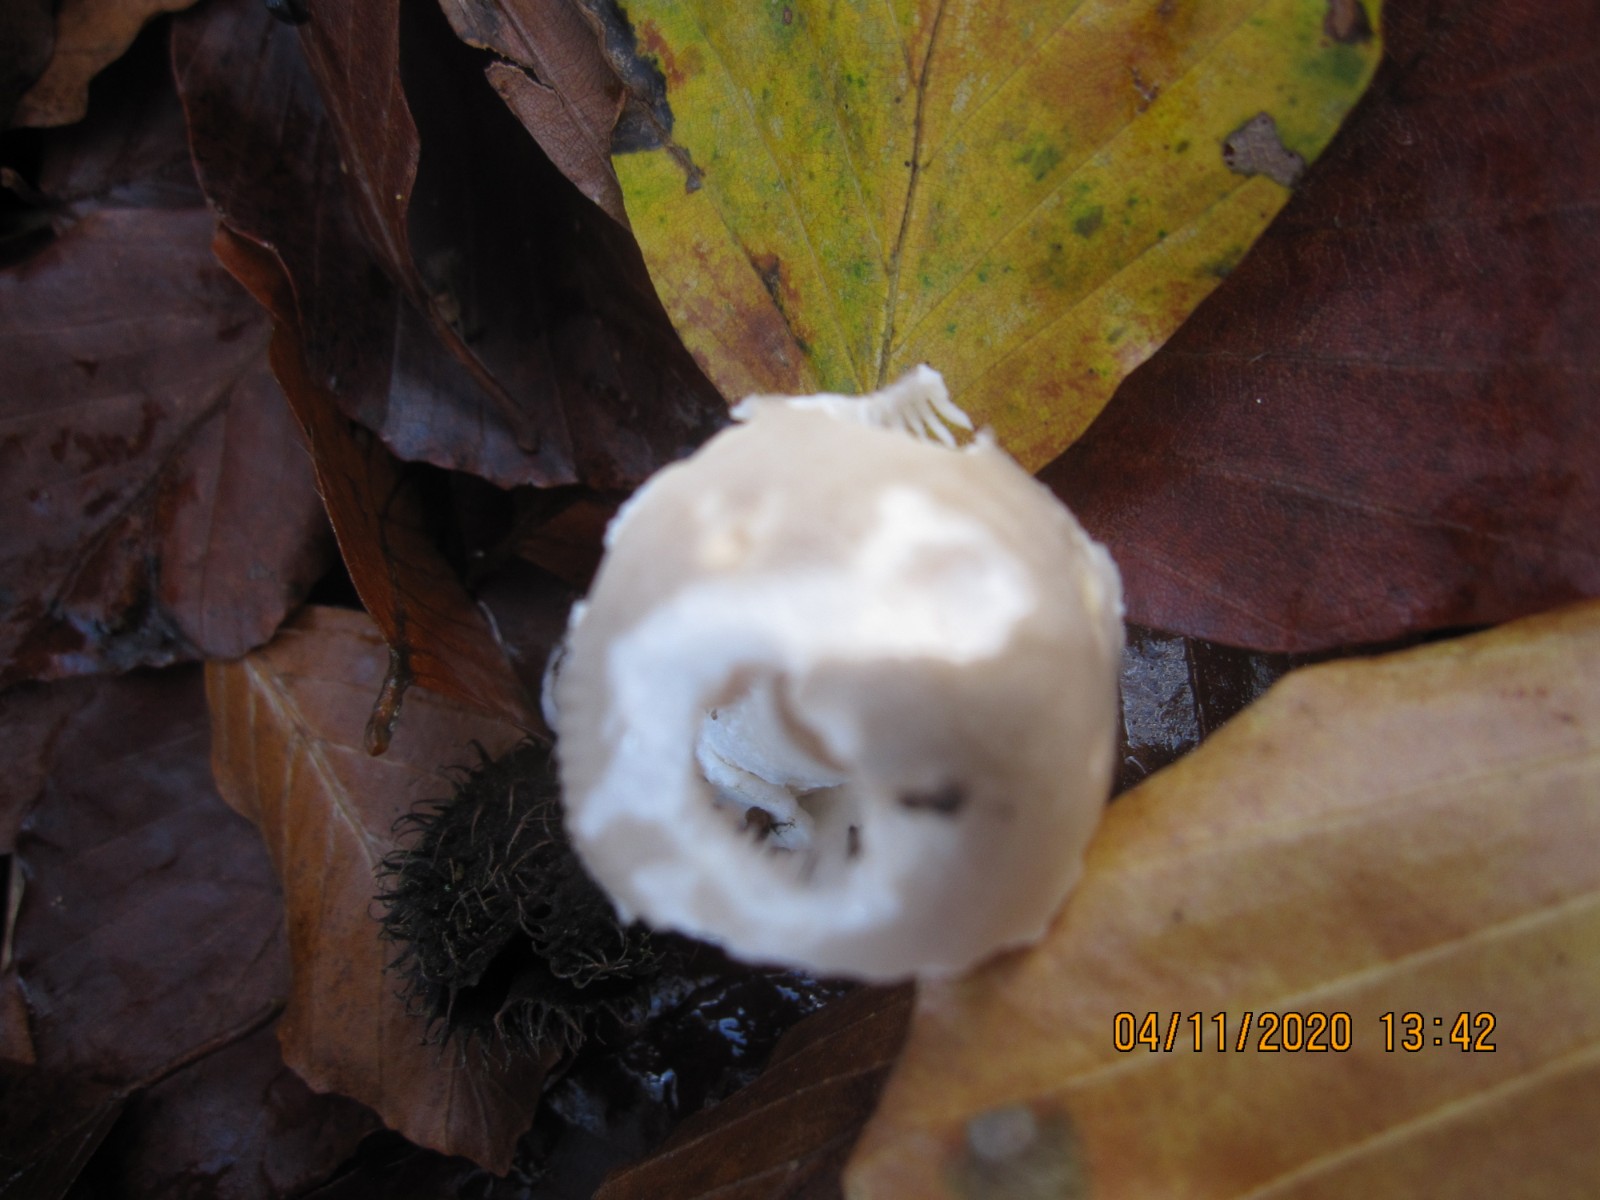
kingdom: Fungi
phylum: Basidiomycota
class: Agaricomycetes
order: Agaricales
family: Amanitaceae
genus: Amanita
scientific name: Amanita vaginata
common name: grå kam-fluesvamp
